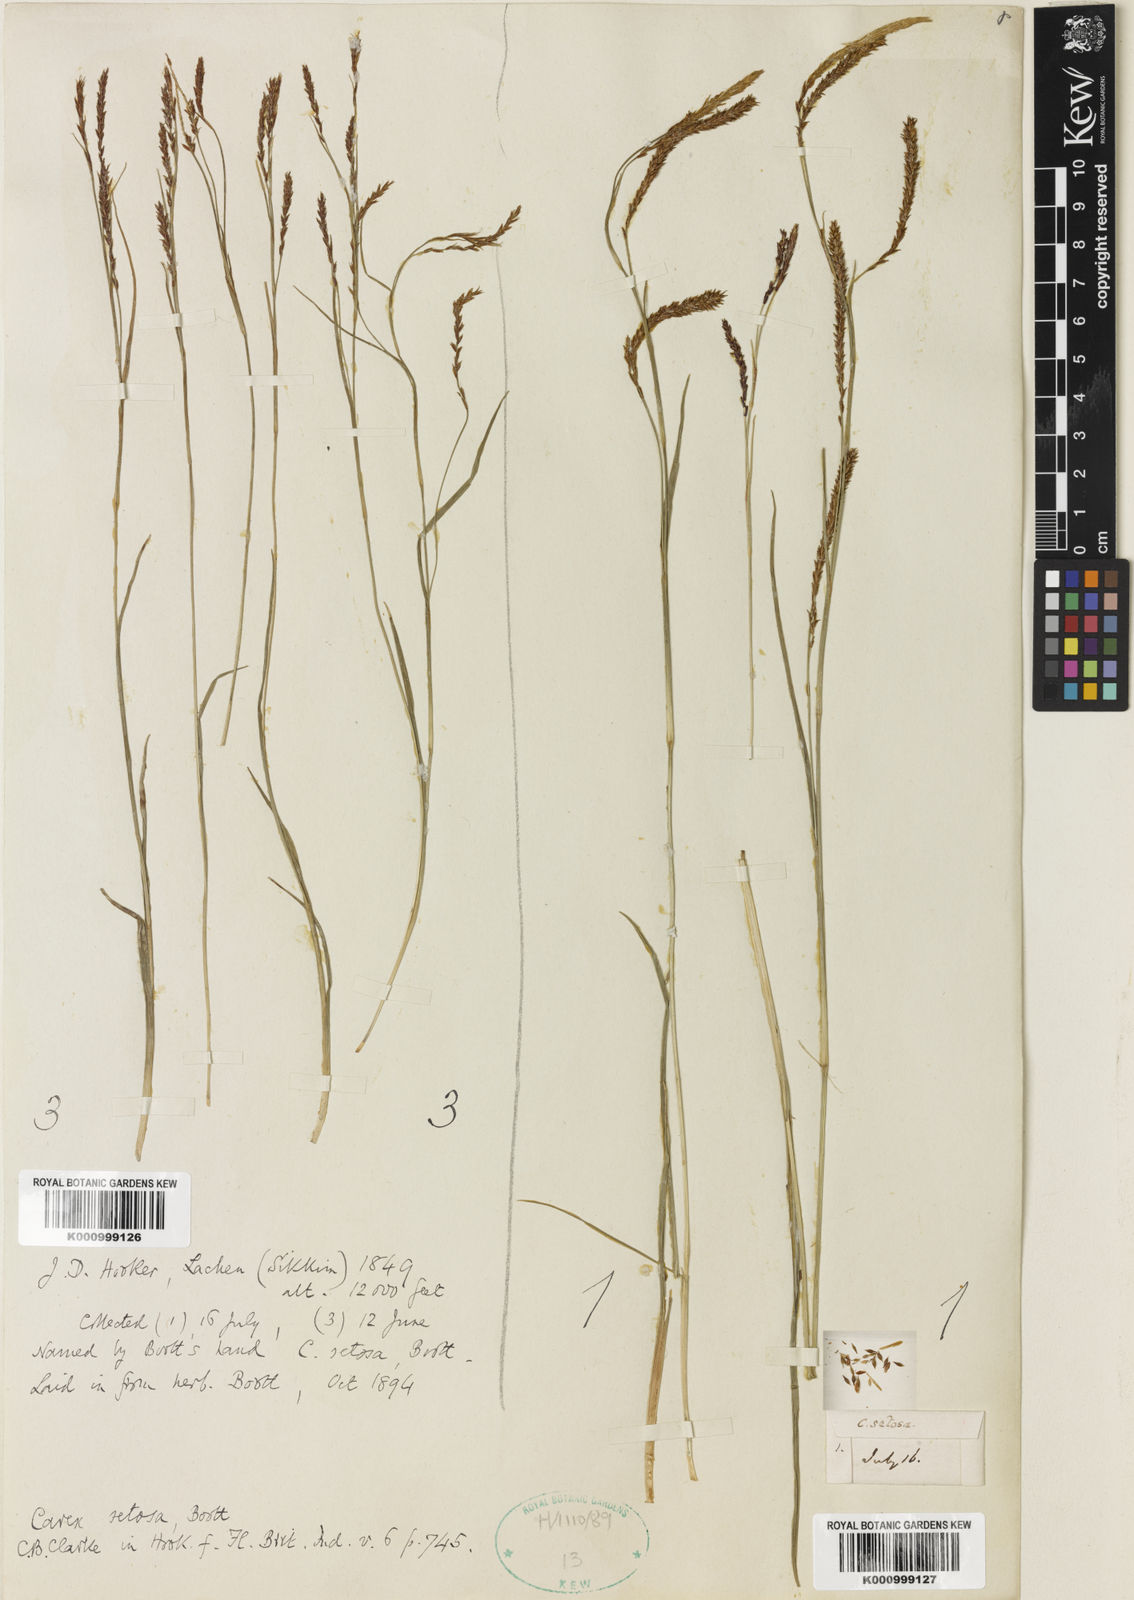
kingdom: Plantae
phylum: Tracheophyta
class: Liliopsida
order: Poales
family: Cyperaceae
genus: Carex
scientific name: Carex setosa
